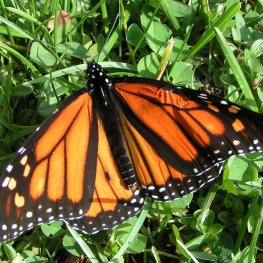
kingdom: Animalia
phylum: Arthropoda
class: Insecta
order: Lepidoptera
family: Nymphalidae
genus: Danaus
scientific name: Danaus plexippus
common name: Monarch
